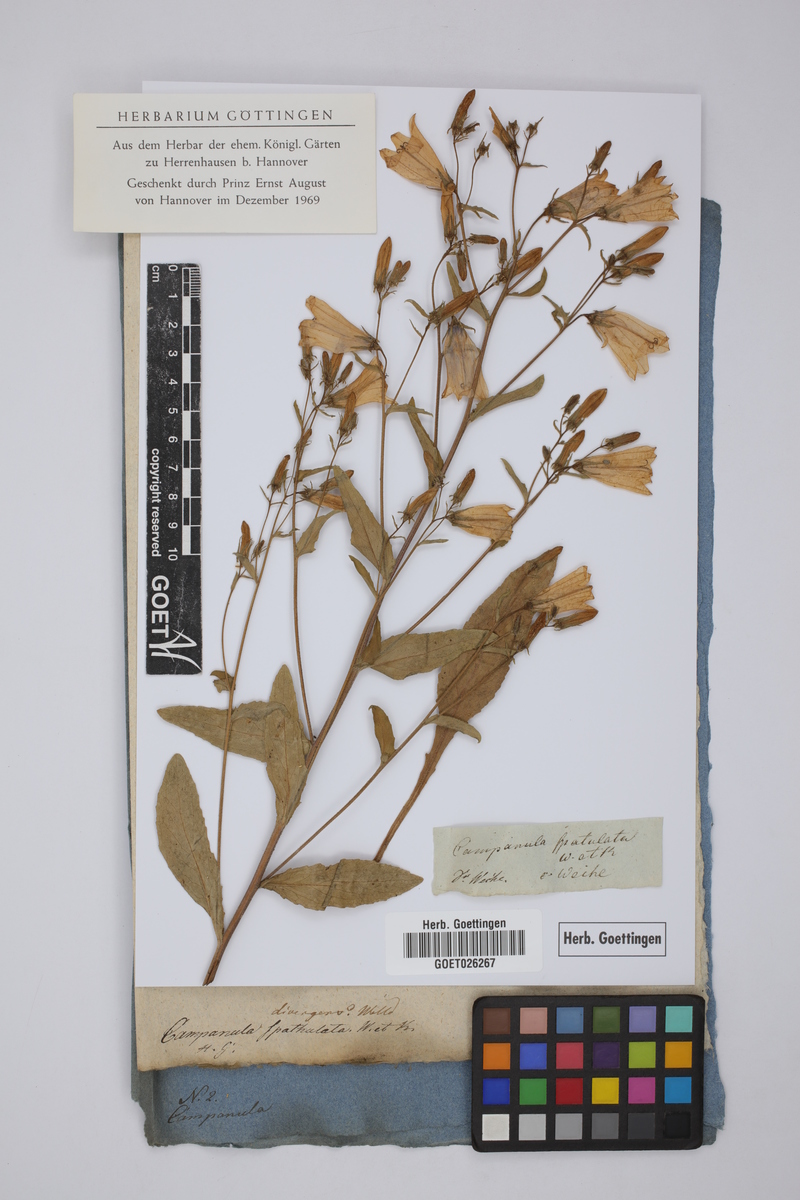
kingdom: Plantae
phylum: Tracheophyta
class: Magnoliopsida
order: Asterales
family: Campanulaceae
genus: Campanula
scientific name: Campanula sibirica
